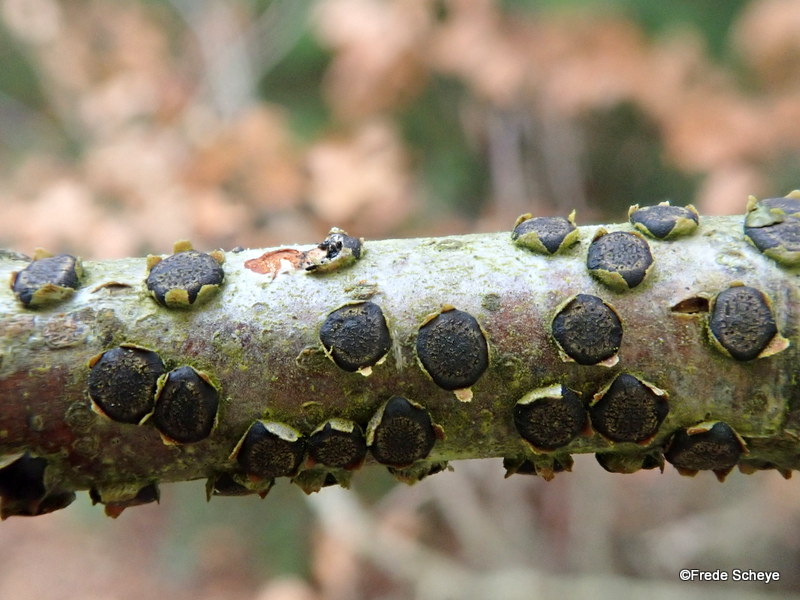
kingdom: Fungi
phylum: Ascomycota
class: Sordariomycetes
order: Xylariales
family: Diatrypaceae
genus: Diatrype
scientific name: Diatrype disciformis
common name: kant-kulskorpe
